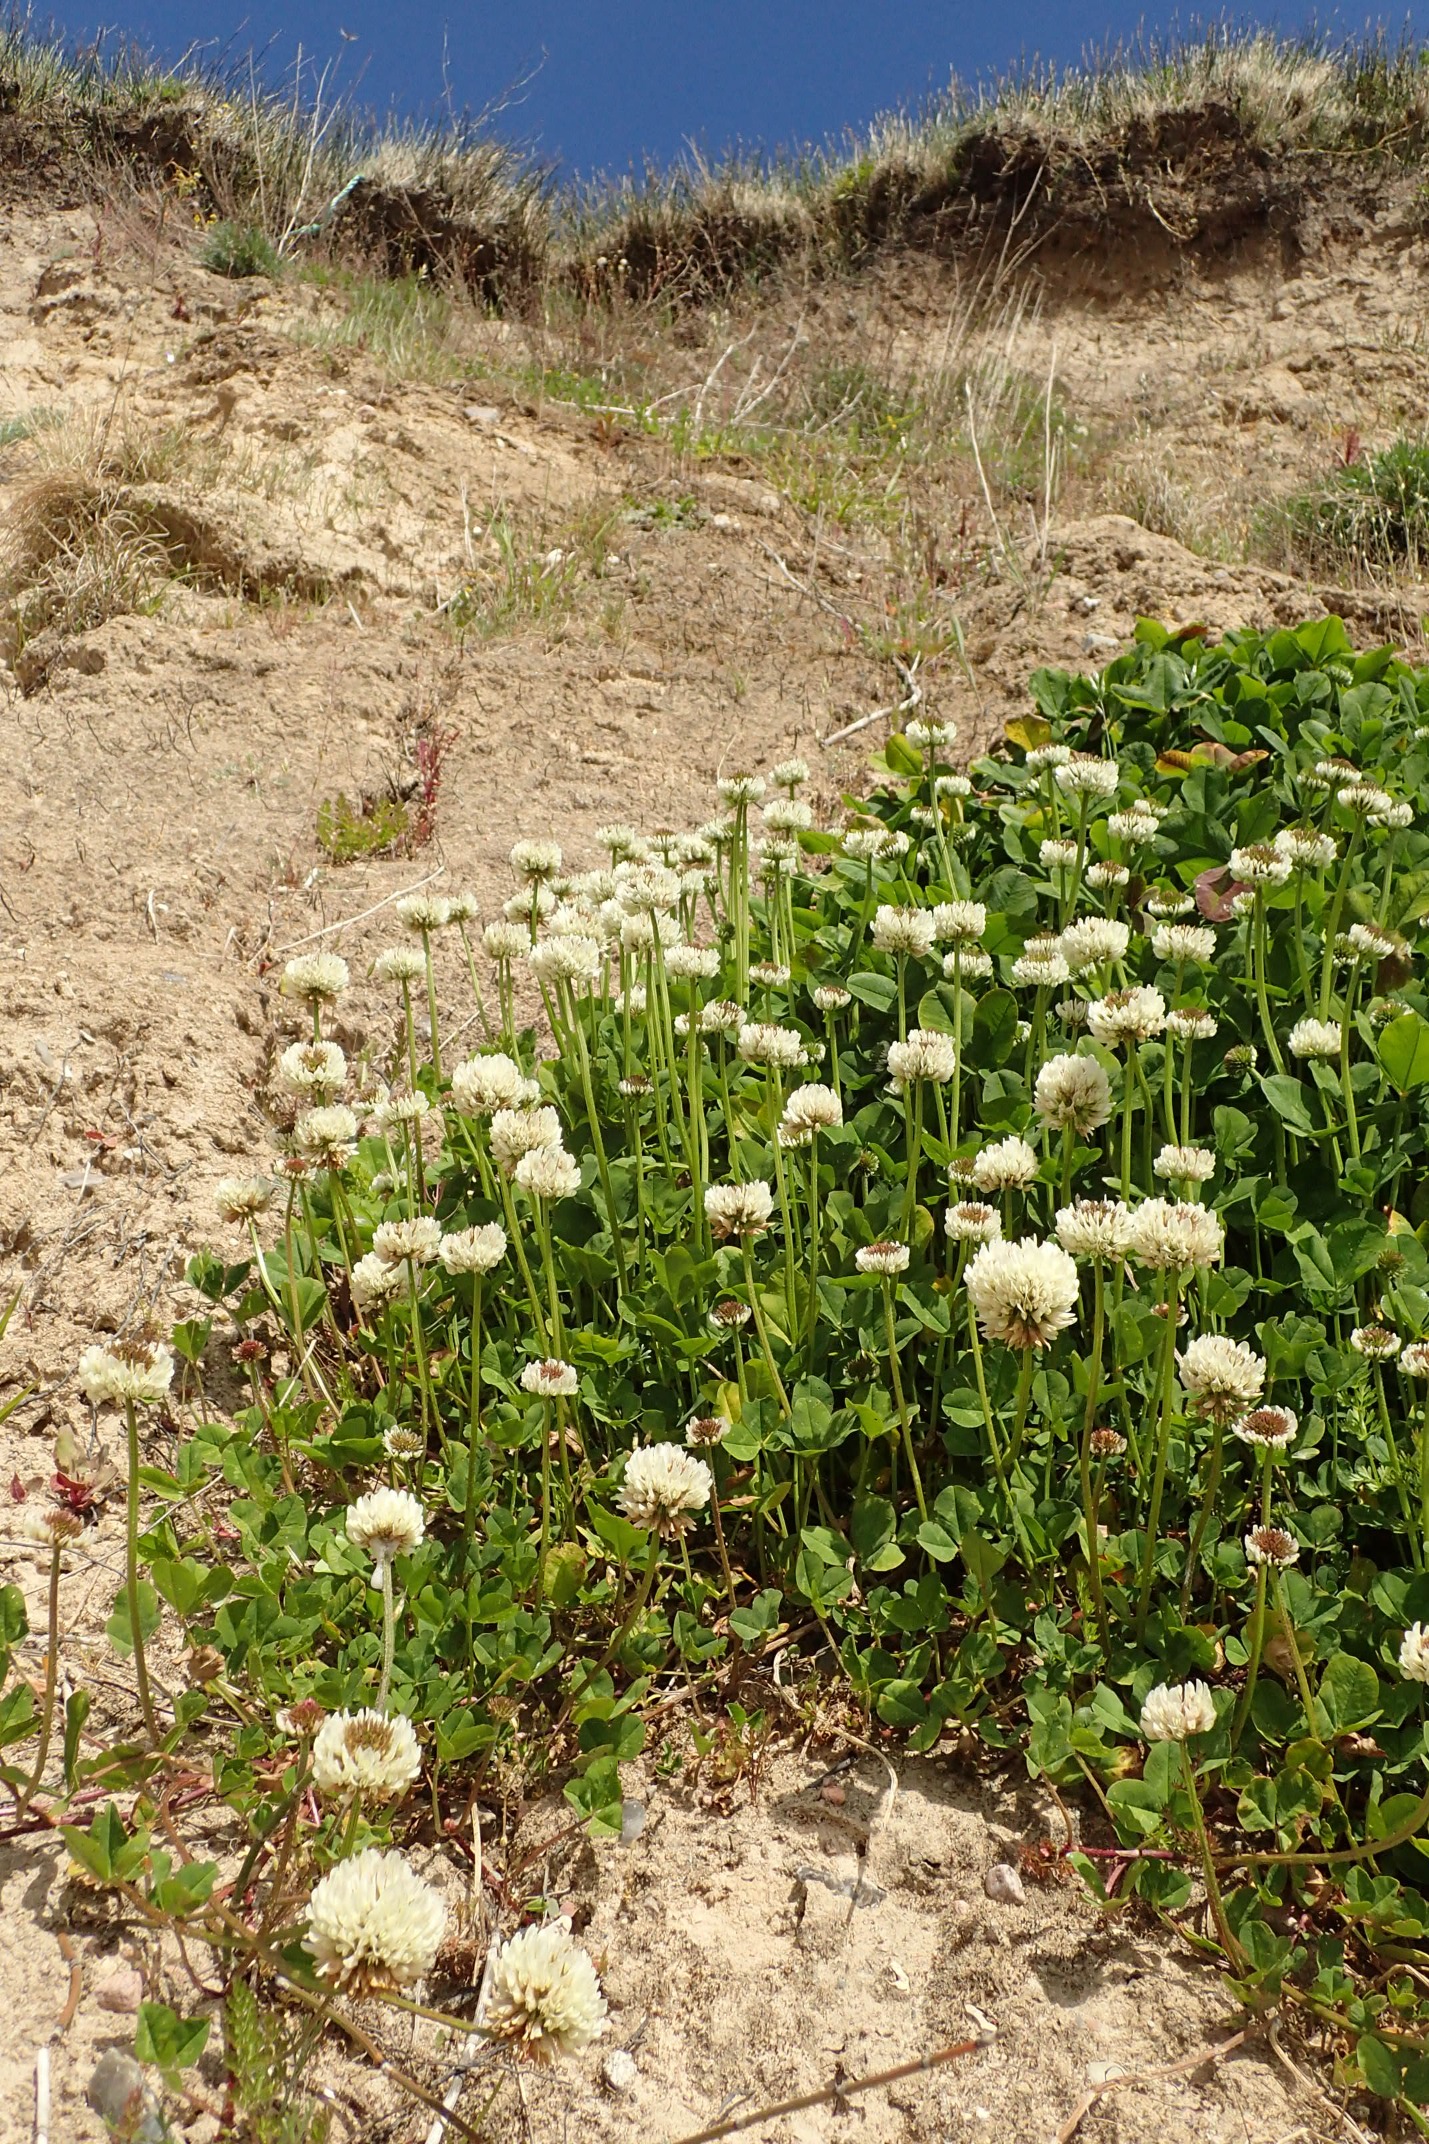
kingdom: Plantae
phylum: Tracheophyta
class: Magnoliopsida
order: Fabales
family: Fabaceae
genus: Trifolium
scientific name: Trifolium repens
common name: Hvid-kløver
